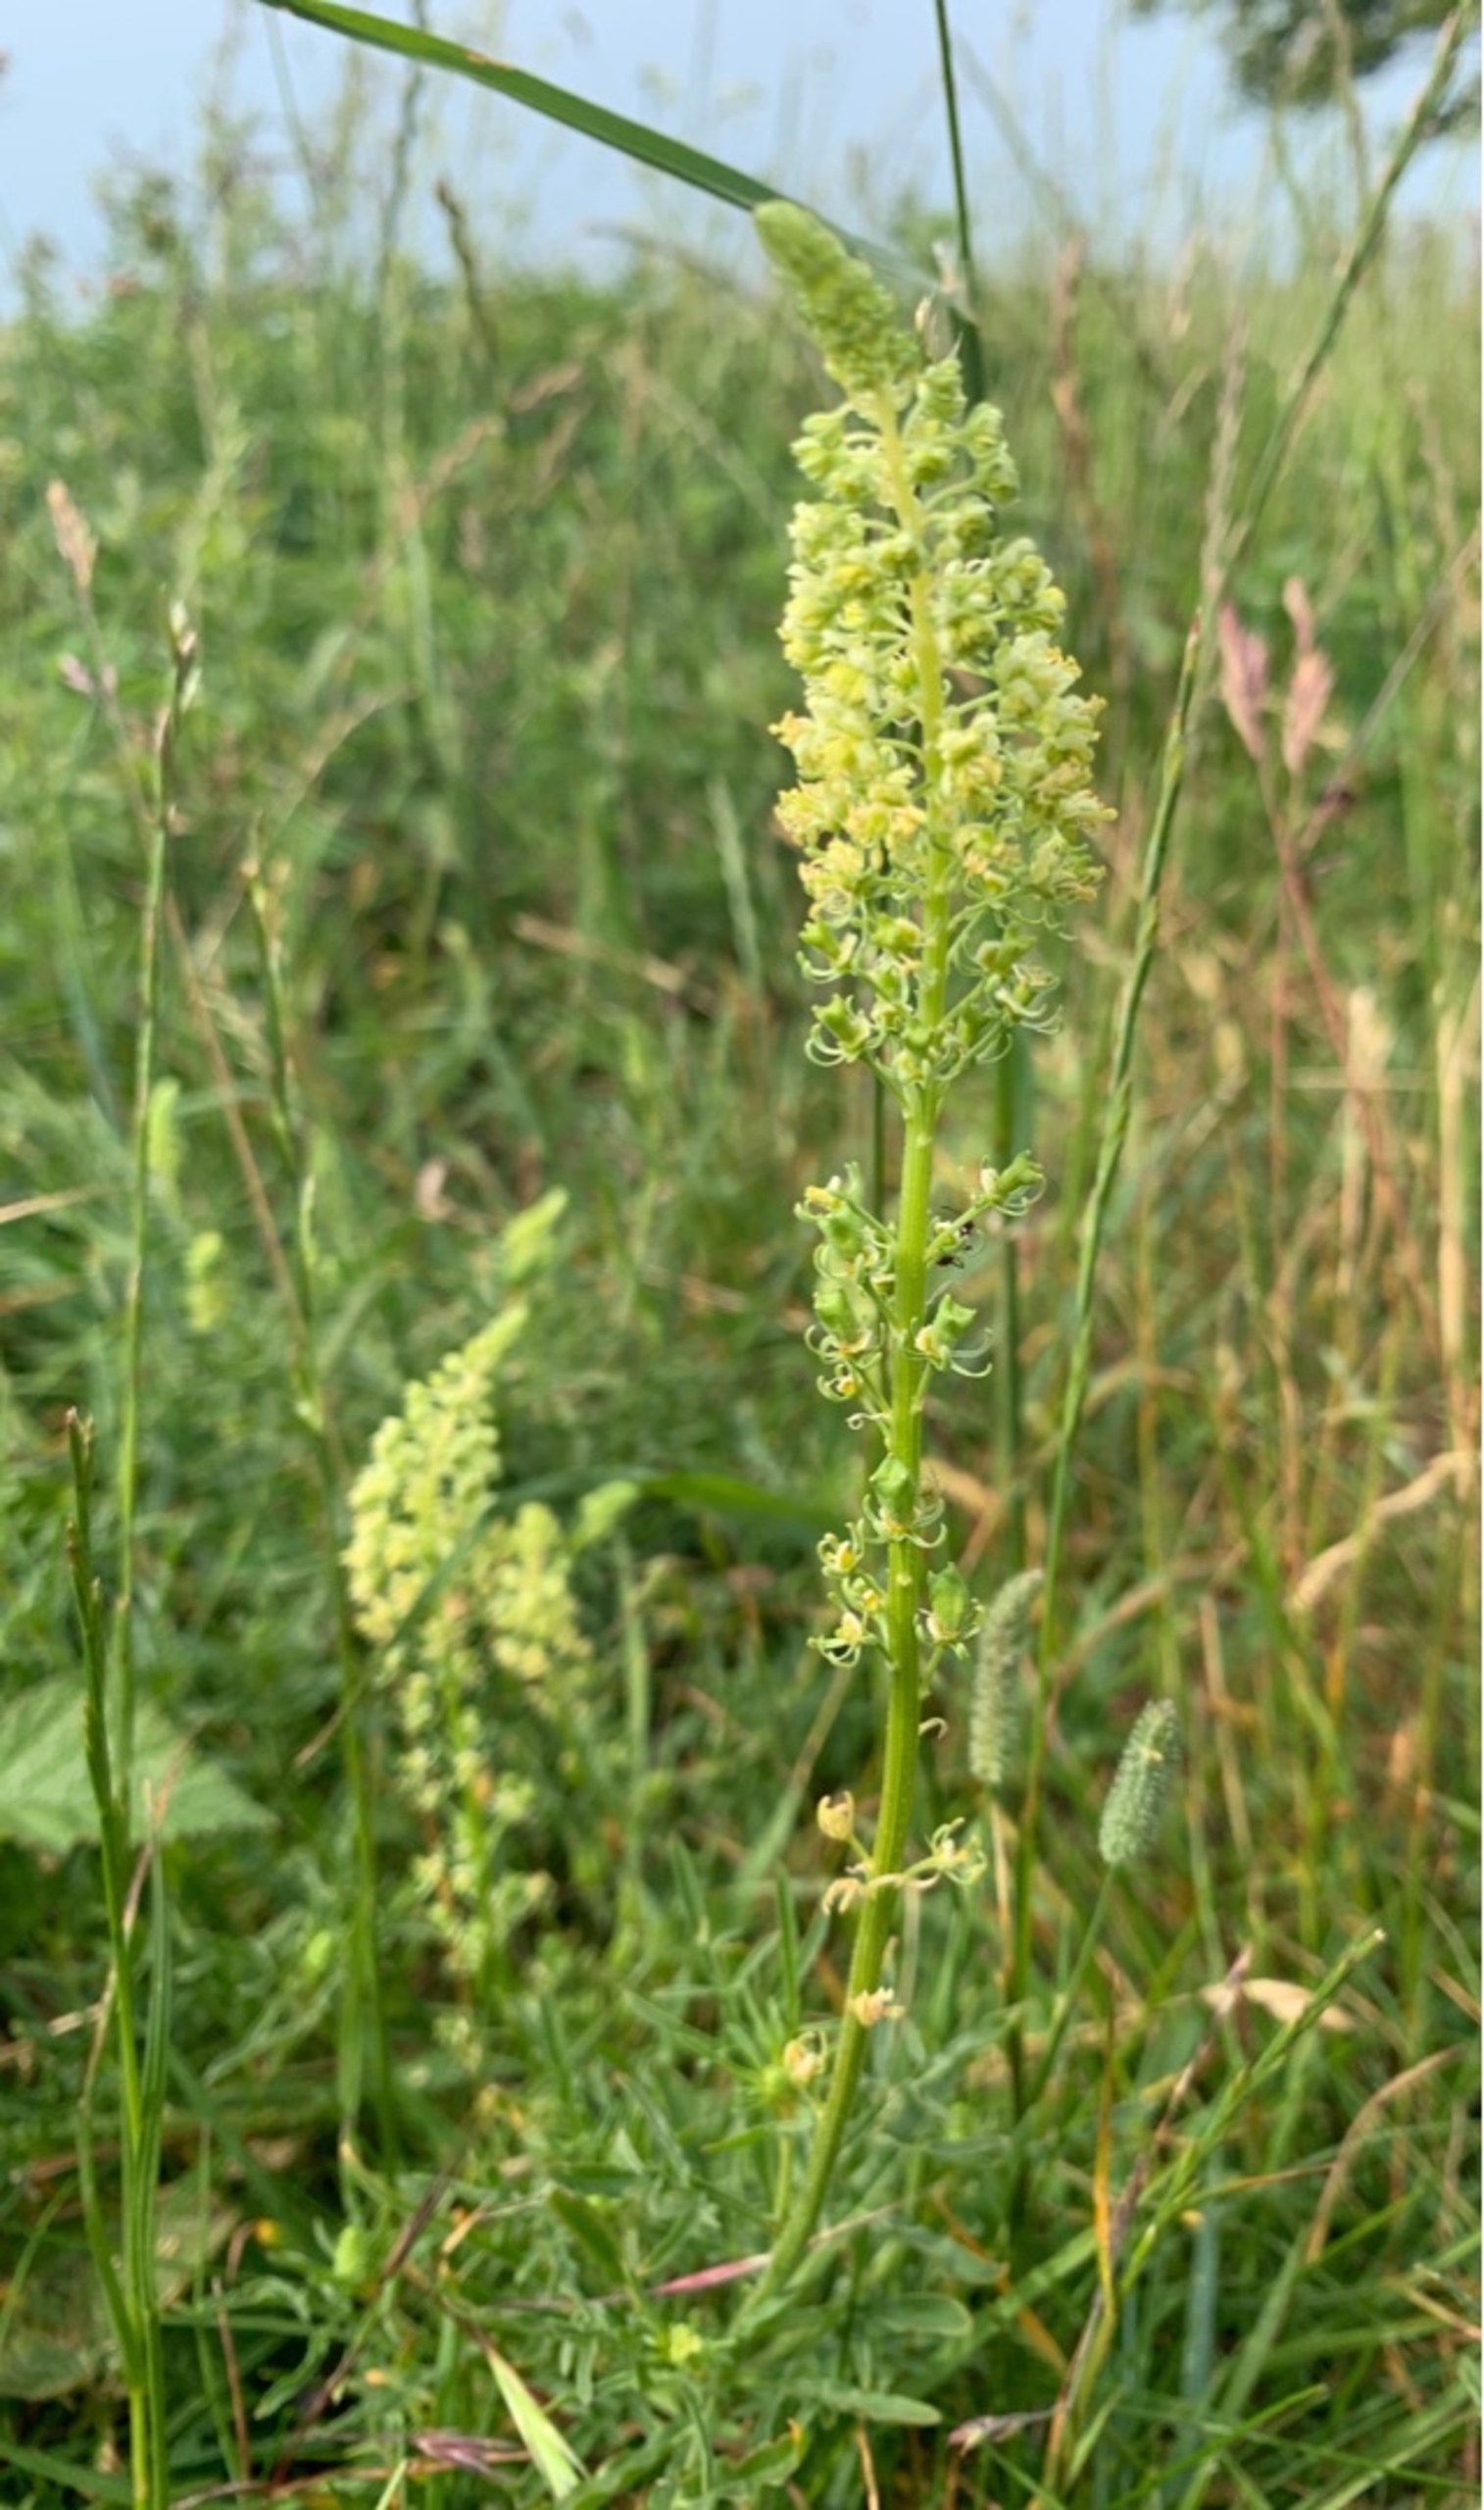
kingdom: Plantae
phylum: Tracheophyta
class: Magnoliopsida
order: Brassicales
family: Resedaceae
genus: Reseda
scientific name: Reseda lutea
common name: Gul reseda
